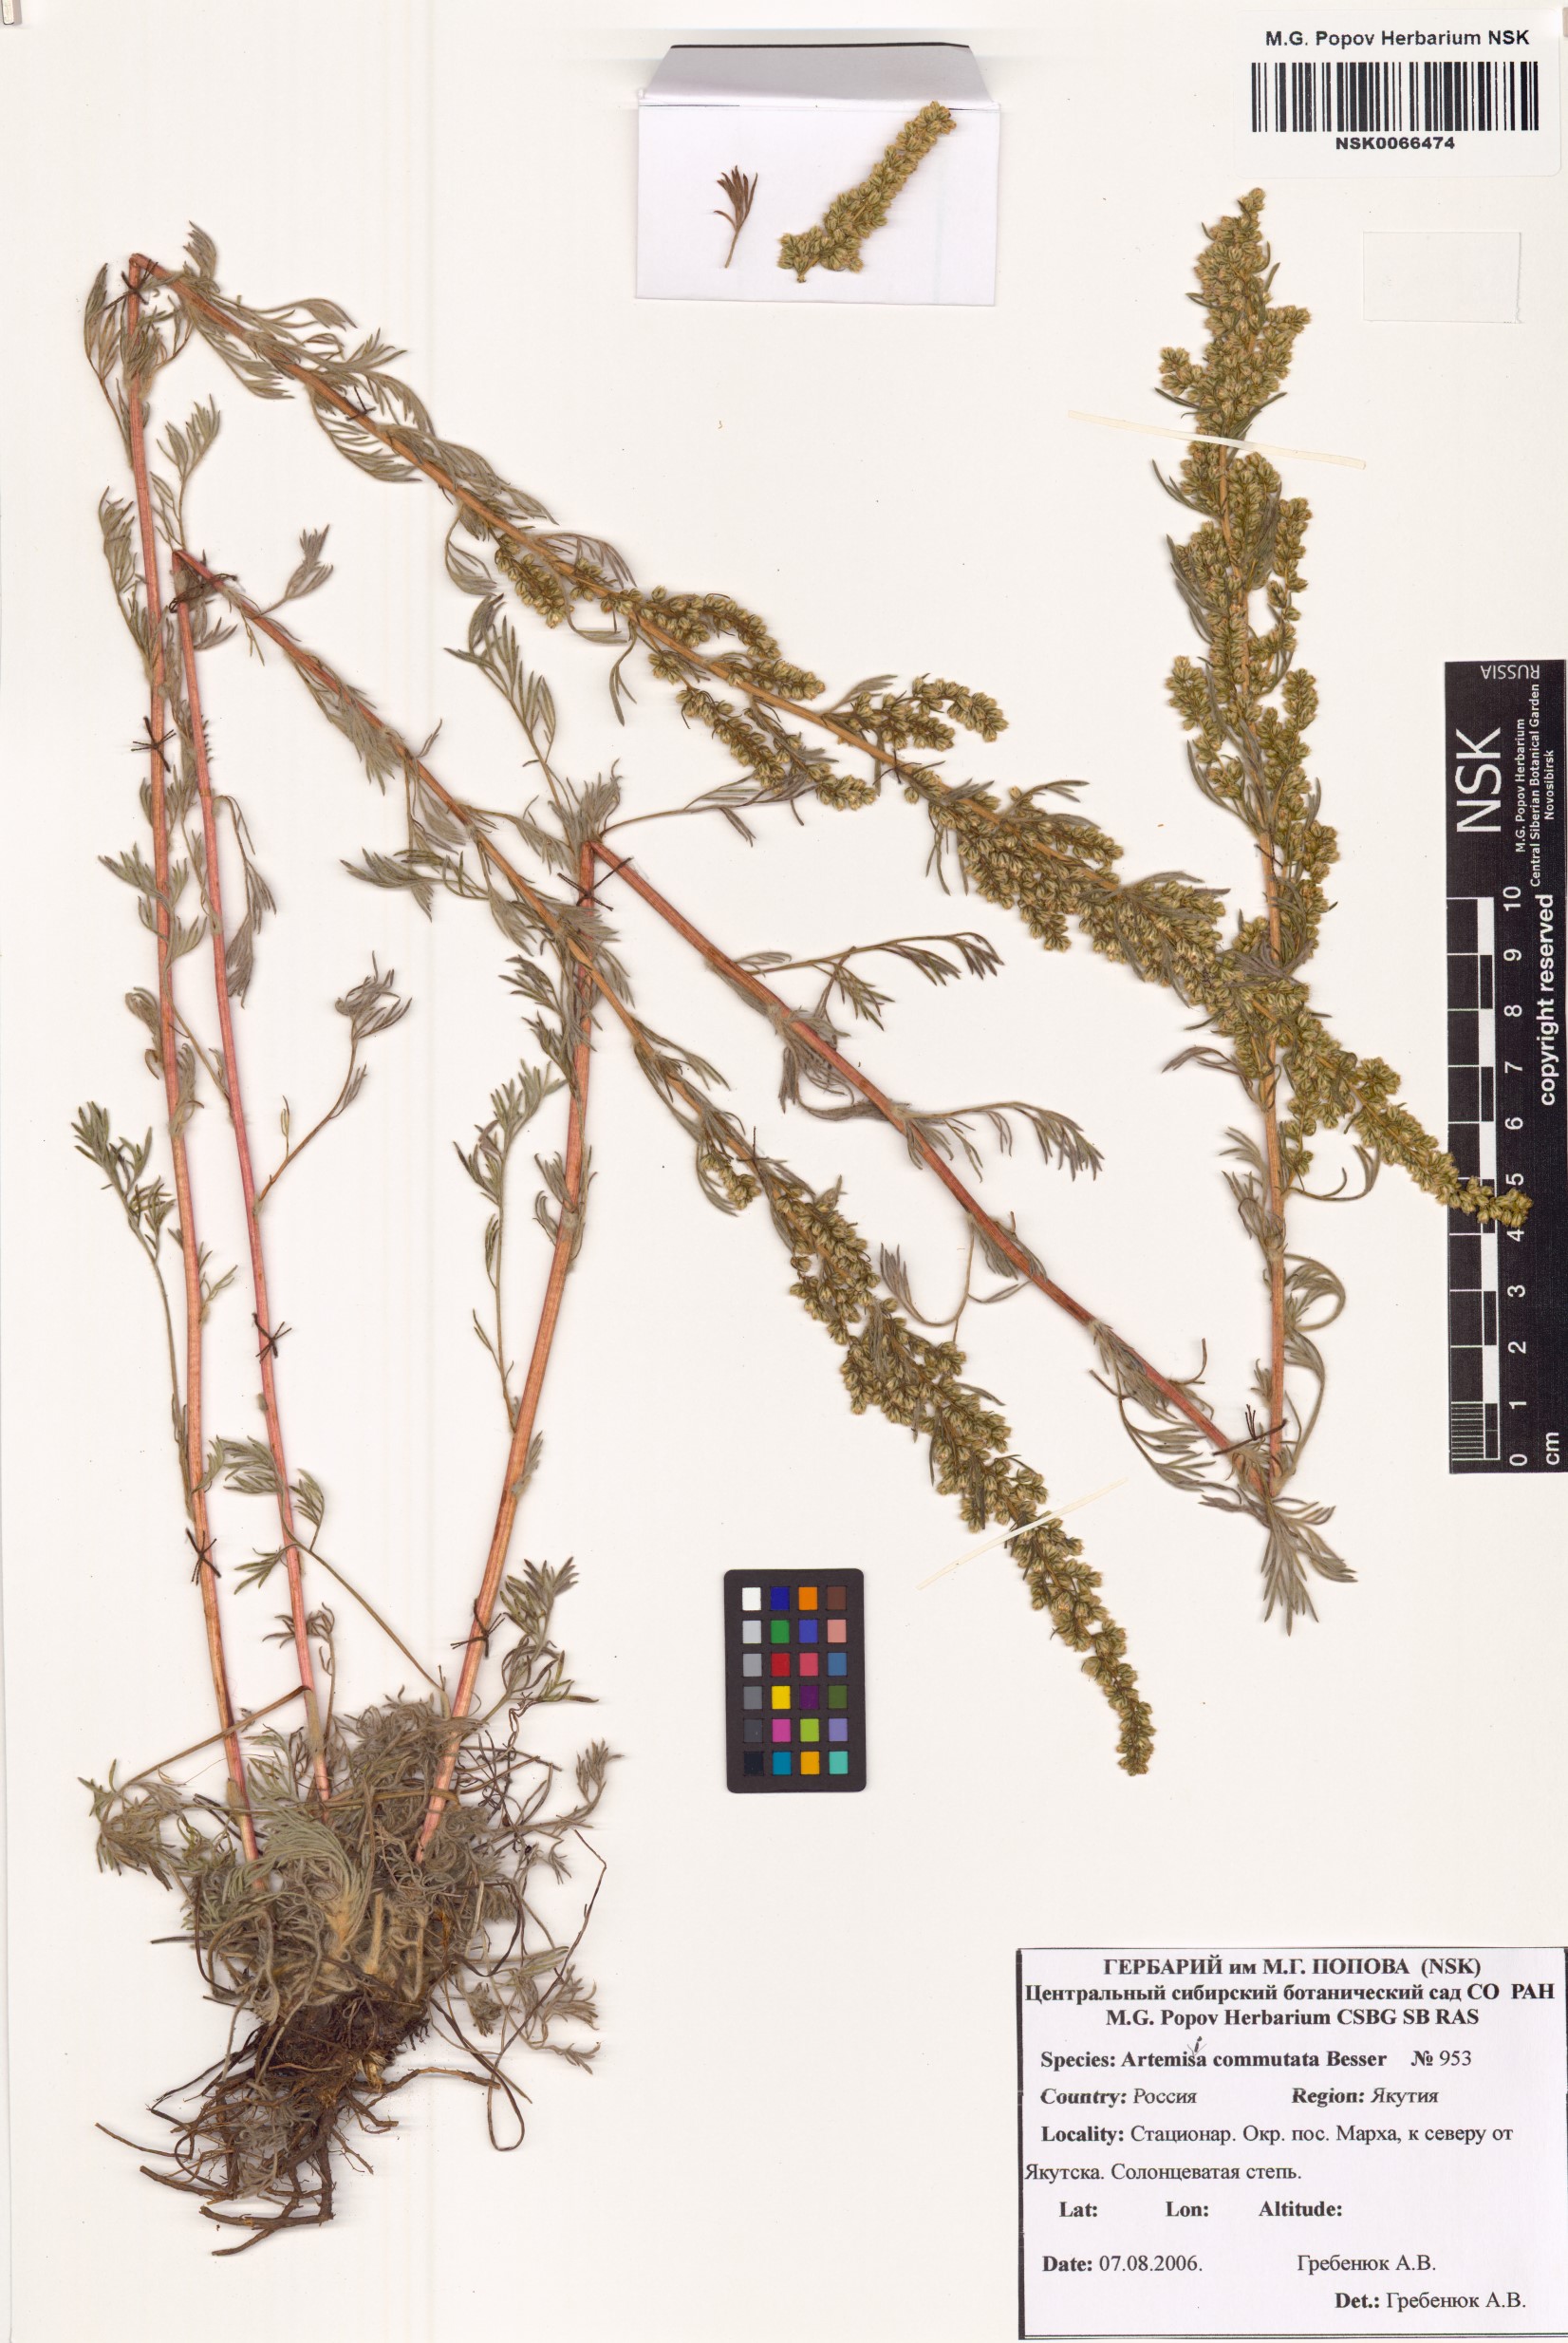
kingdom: Plantae
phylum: Tracheophyta
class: Magnoliopsida
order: Asterales
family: Asteraceae
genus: Artemisia
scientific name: Artemisia pubescens
